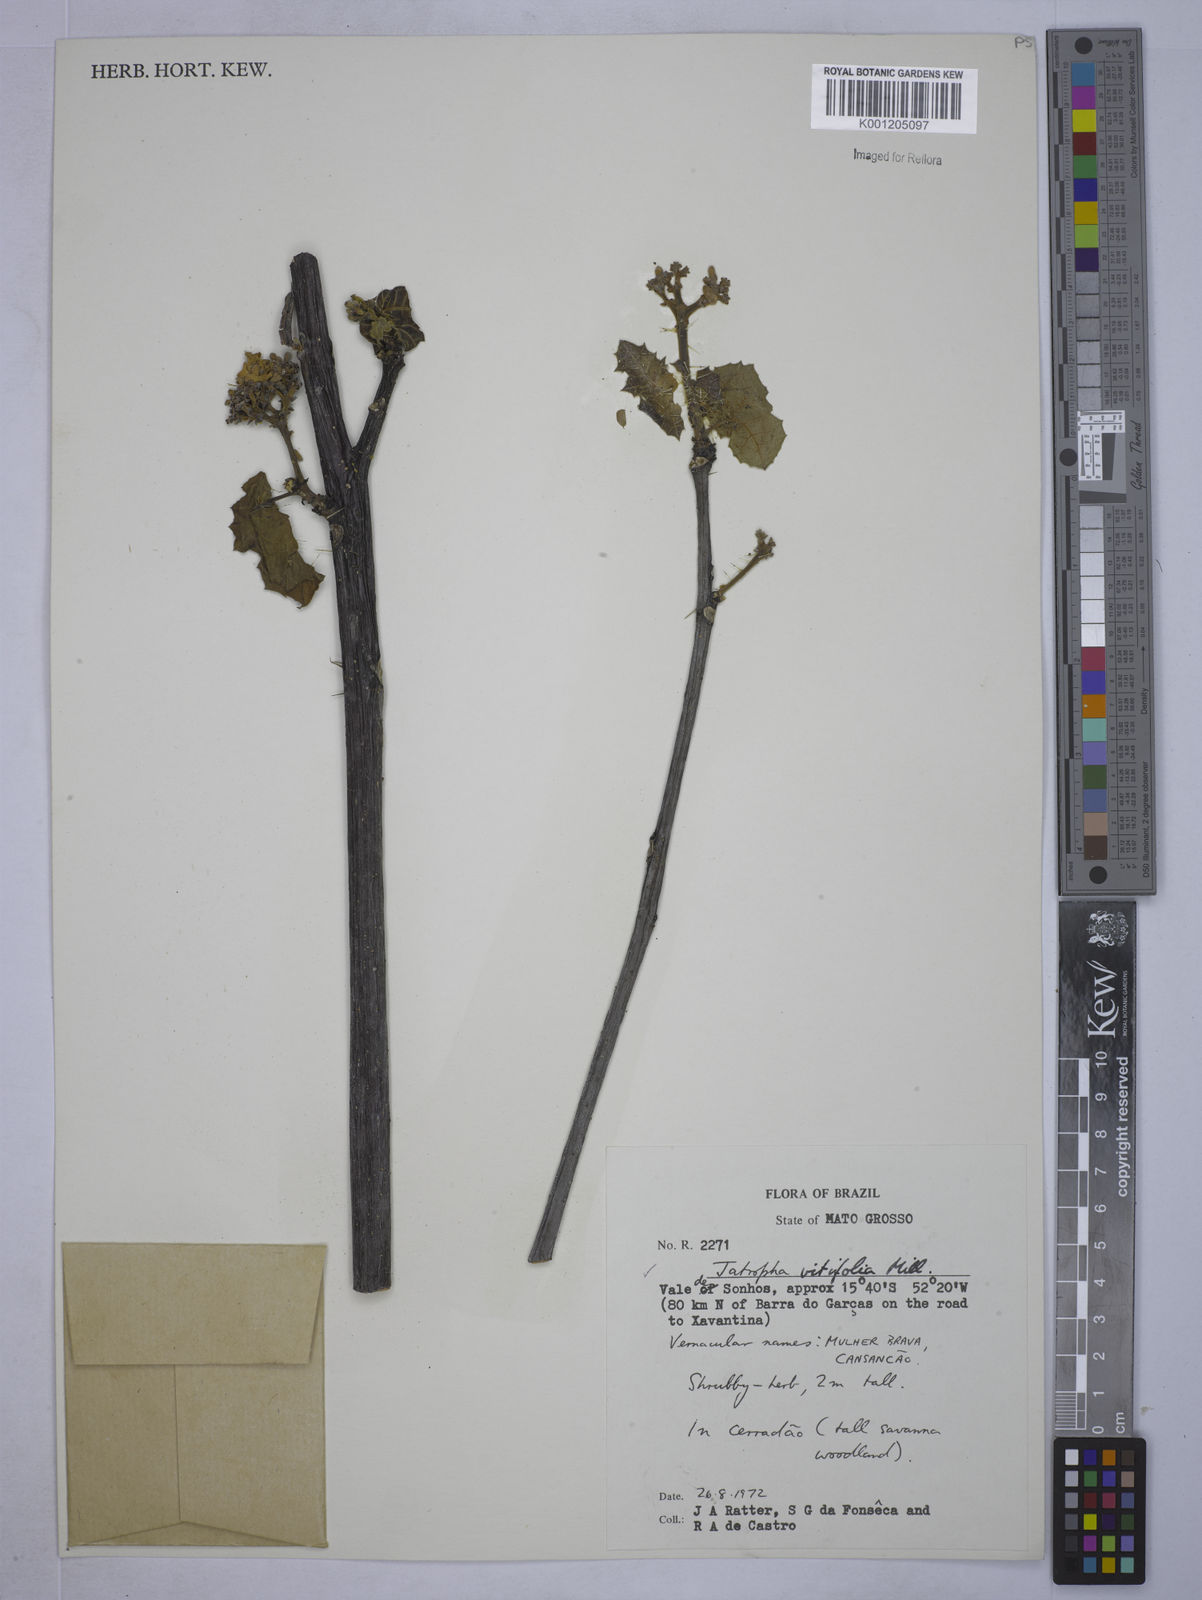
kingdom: Plantae
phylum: Tracheophyta
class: Magnoliopsida
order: Malpighiales
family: Euphorbiaceae
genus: Cnidoscolus
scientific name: Cnidoscolus vitifolius
